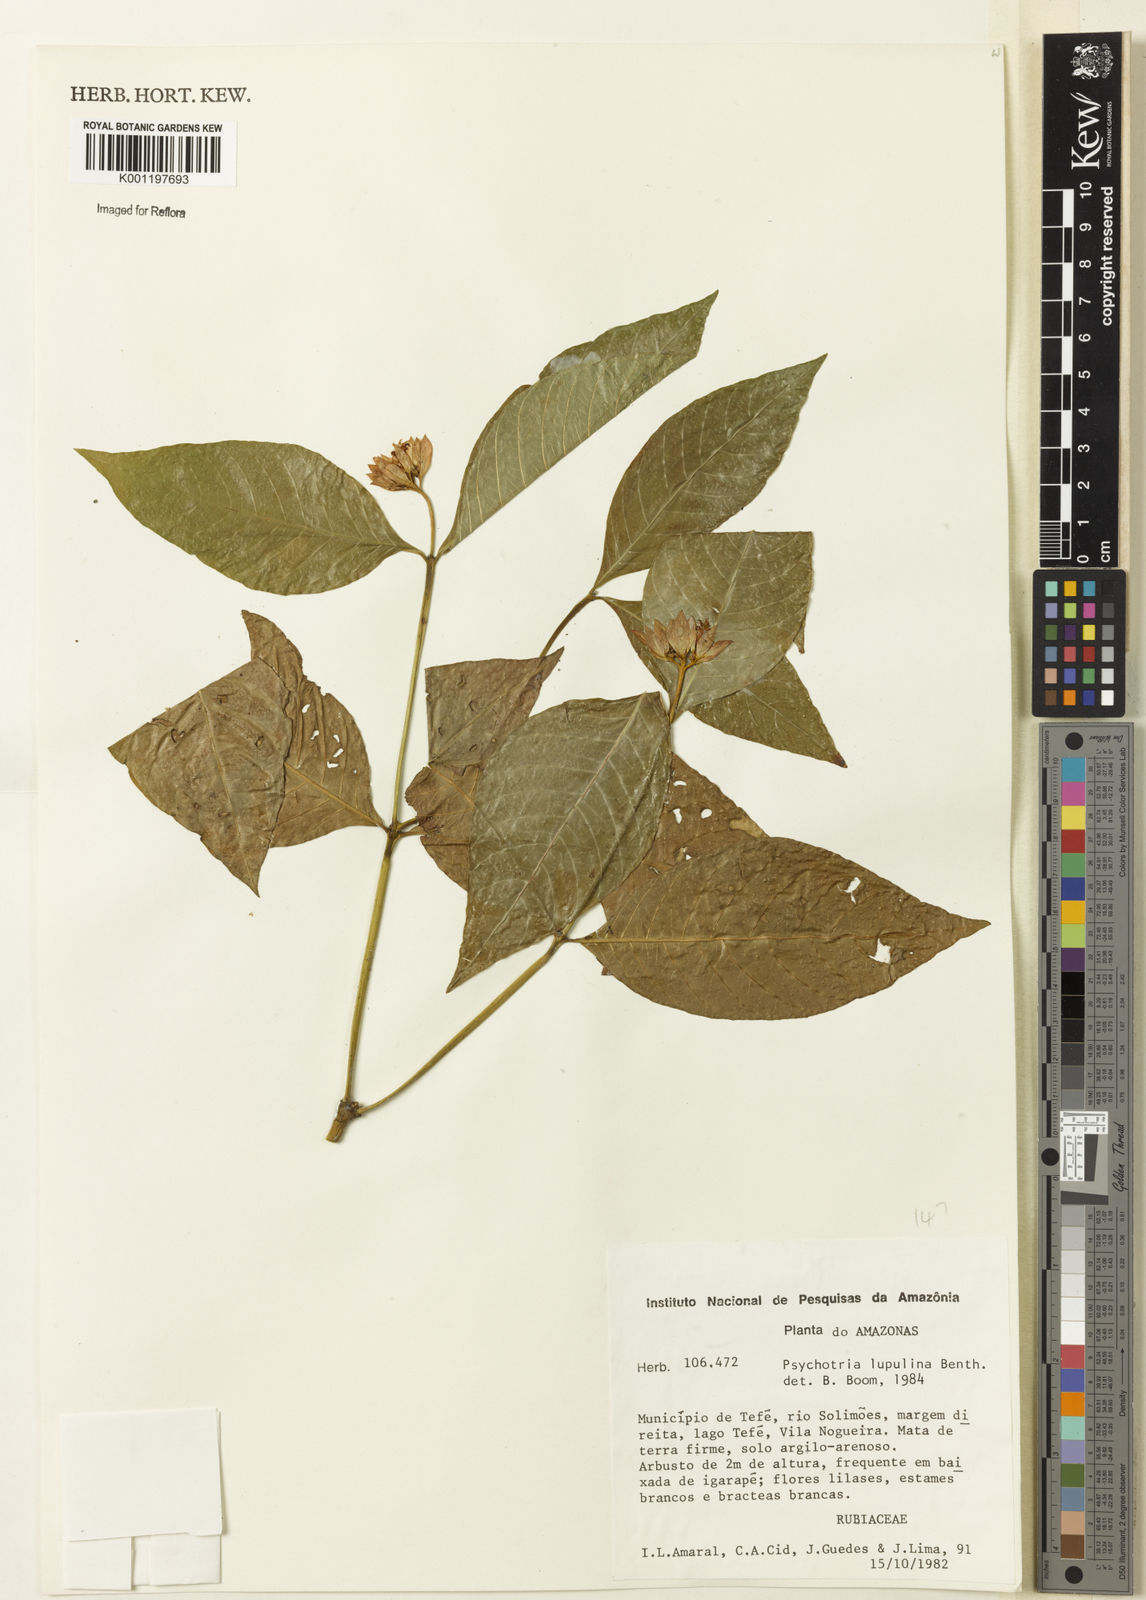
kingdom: Plantae
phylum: Tracheophyta
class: Magnoliopsida
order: Gentianales
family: Rubiaceae
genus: Palicourea
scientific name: Palicourea justiciifolia
